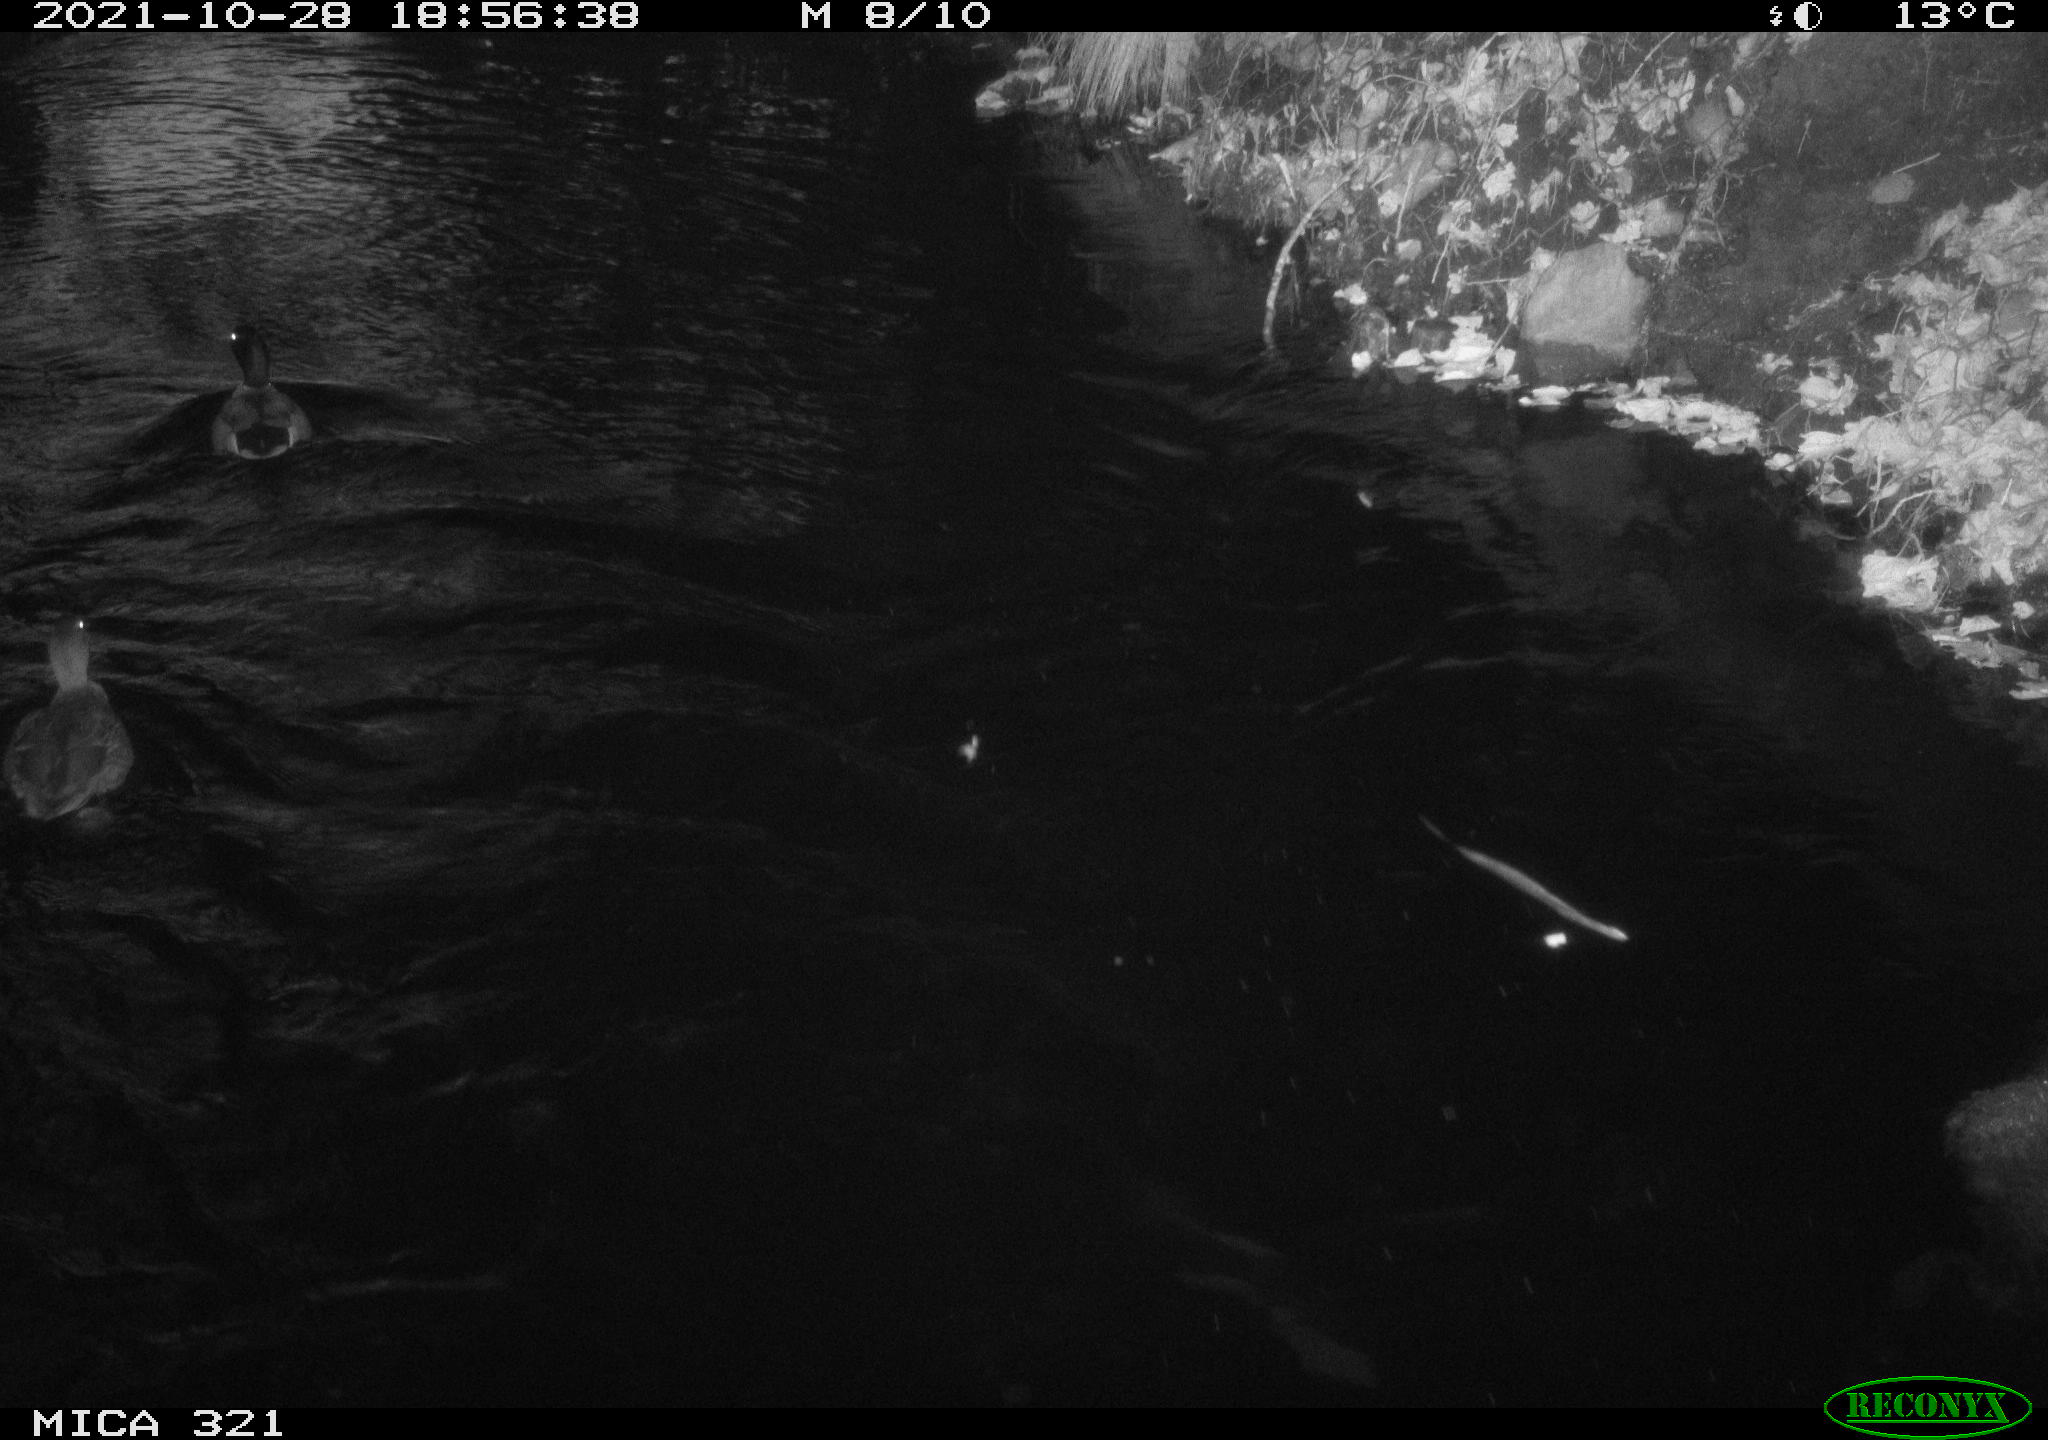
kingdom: Animalia
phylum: Chordata
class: Aves
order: Anseriformes
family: Anatidae
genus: Anas
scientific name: Anas platyrhynchos
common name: Mallard
